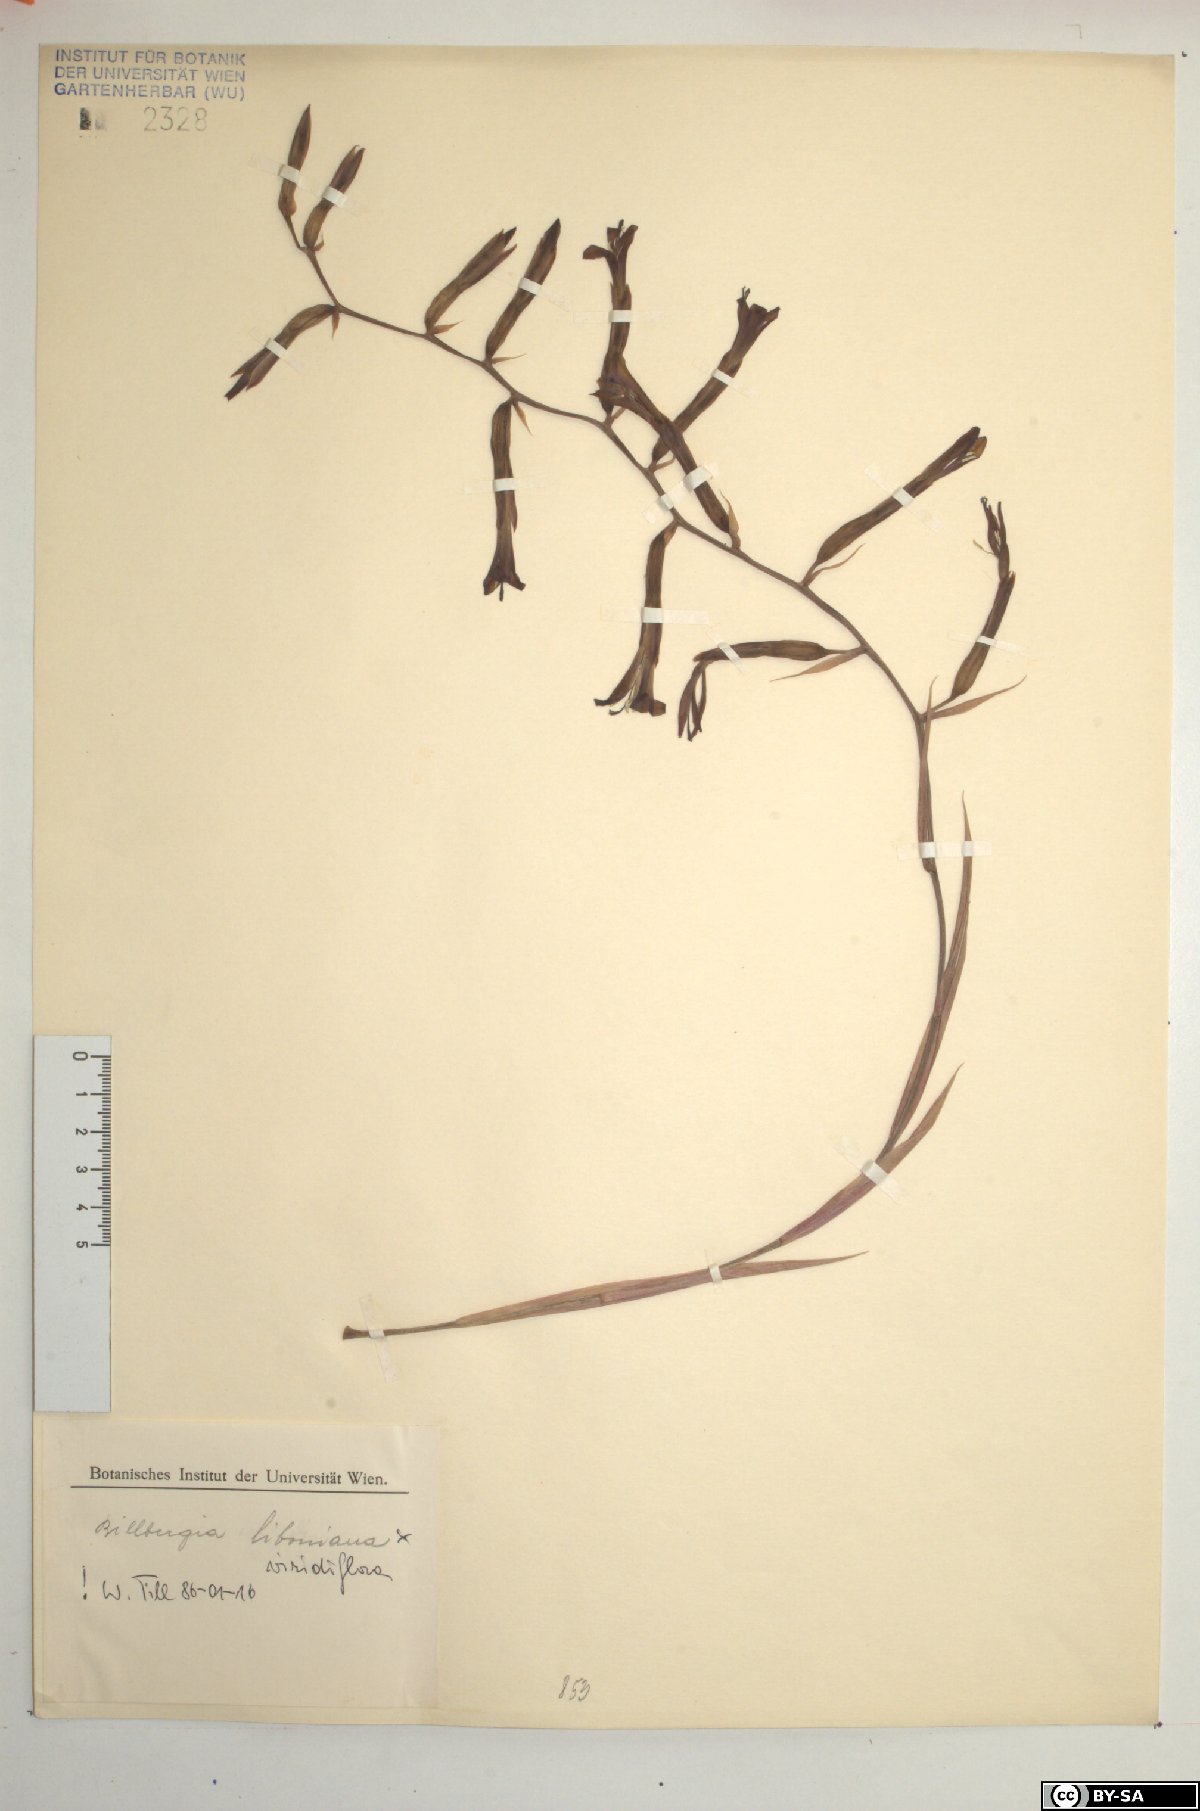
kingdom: Plantae
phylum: Tracheophyta
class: Liliopsida
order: Poales
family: Bromeliaceae
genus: Quesnelia
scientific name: Quesnelia liboniana
